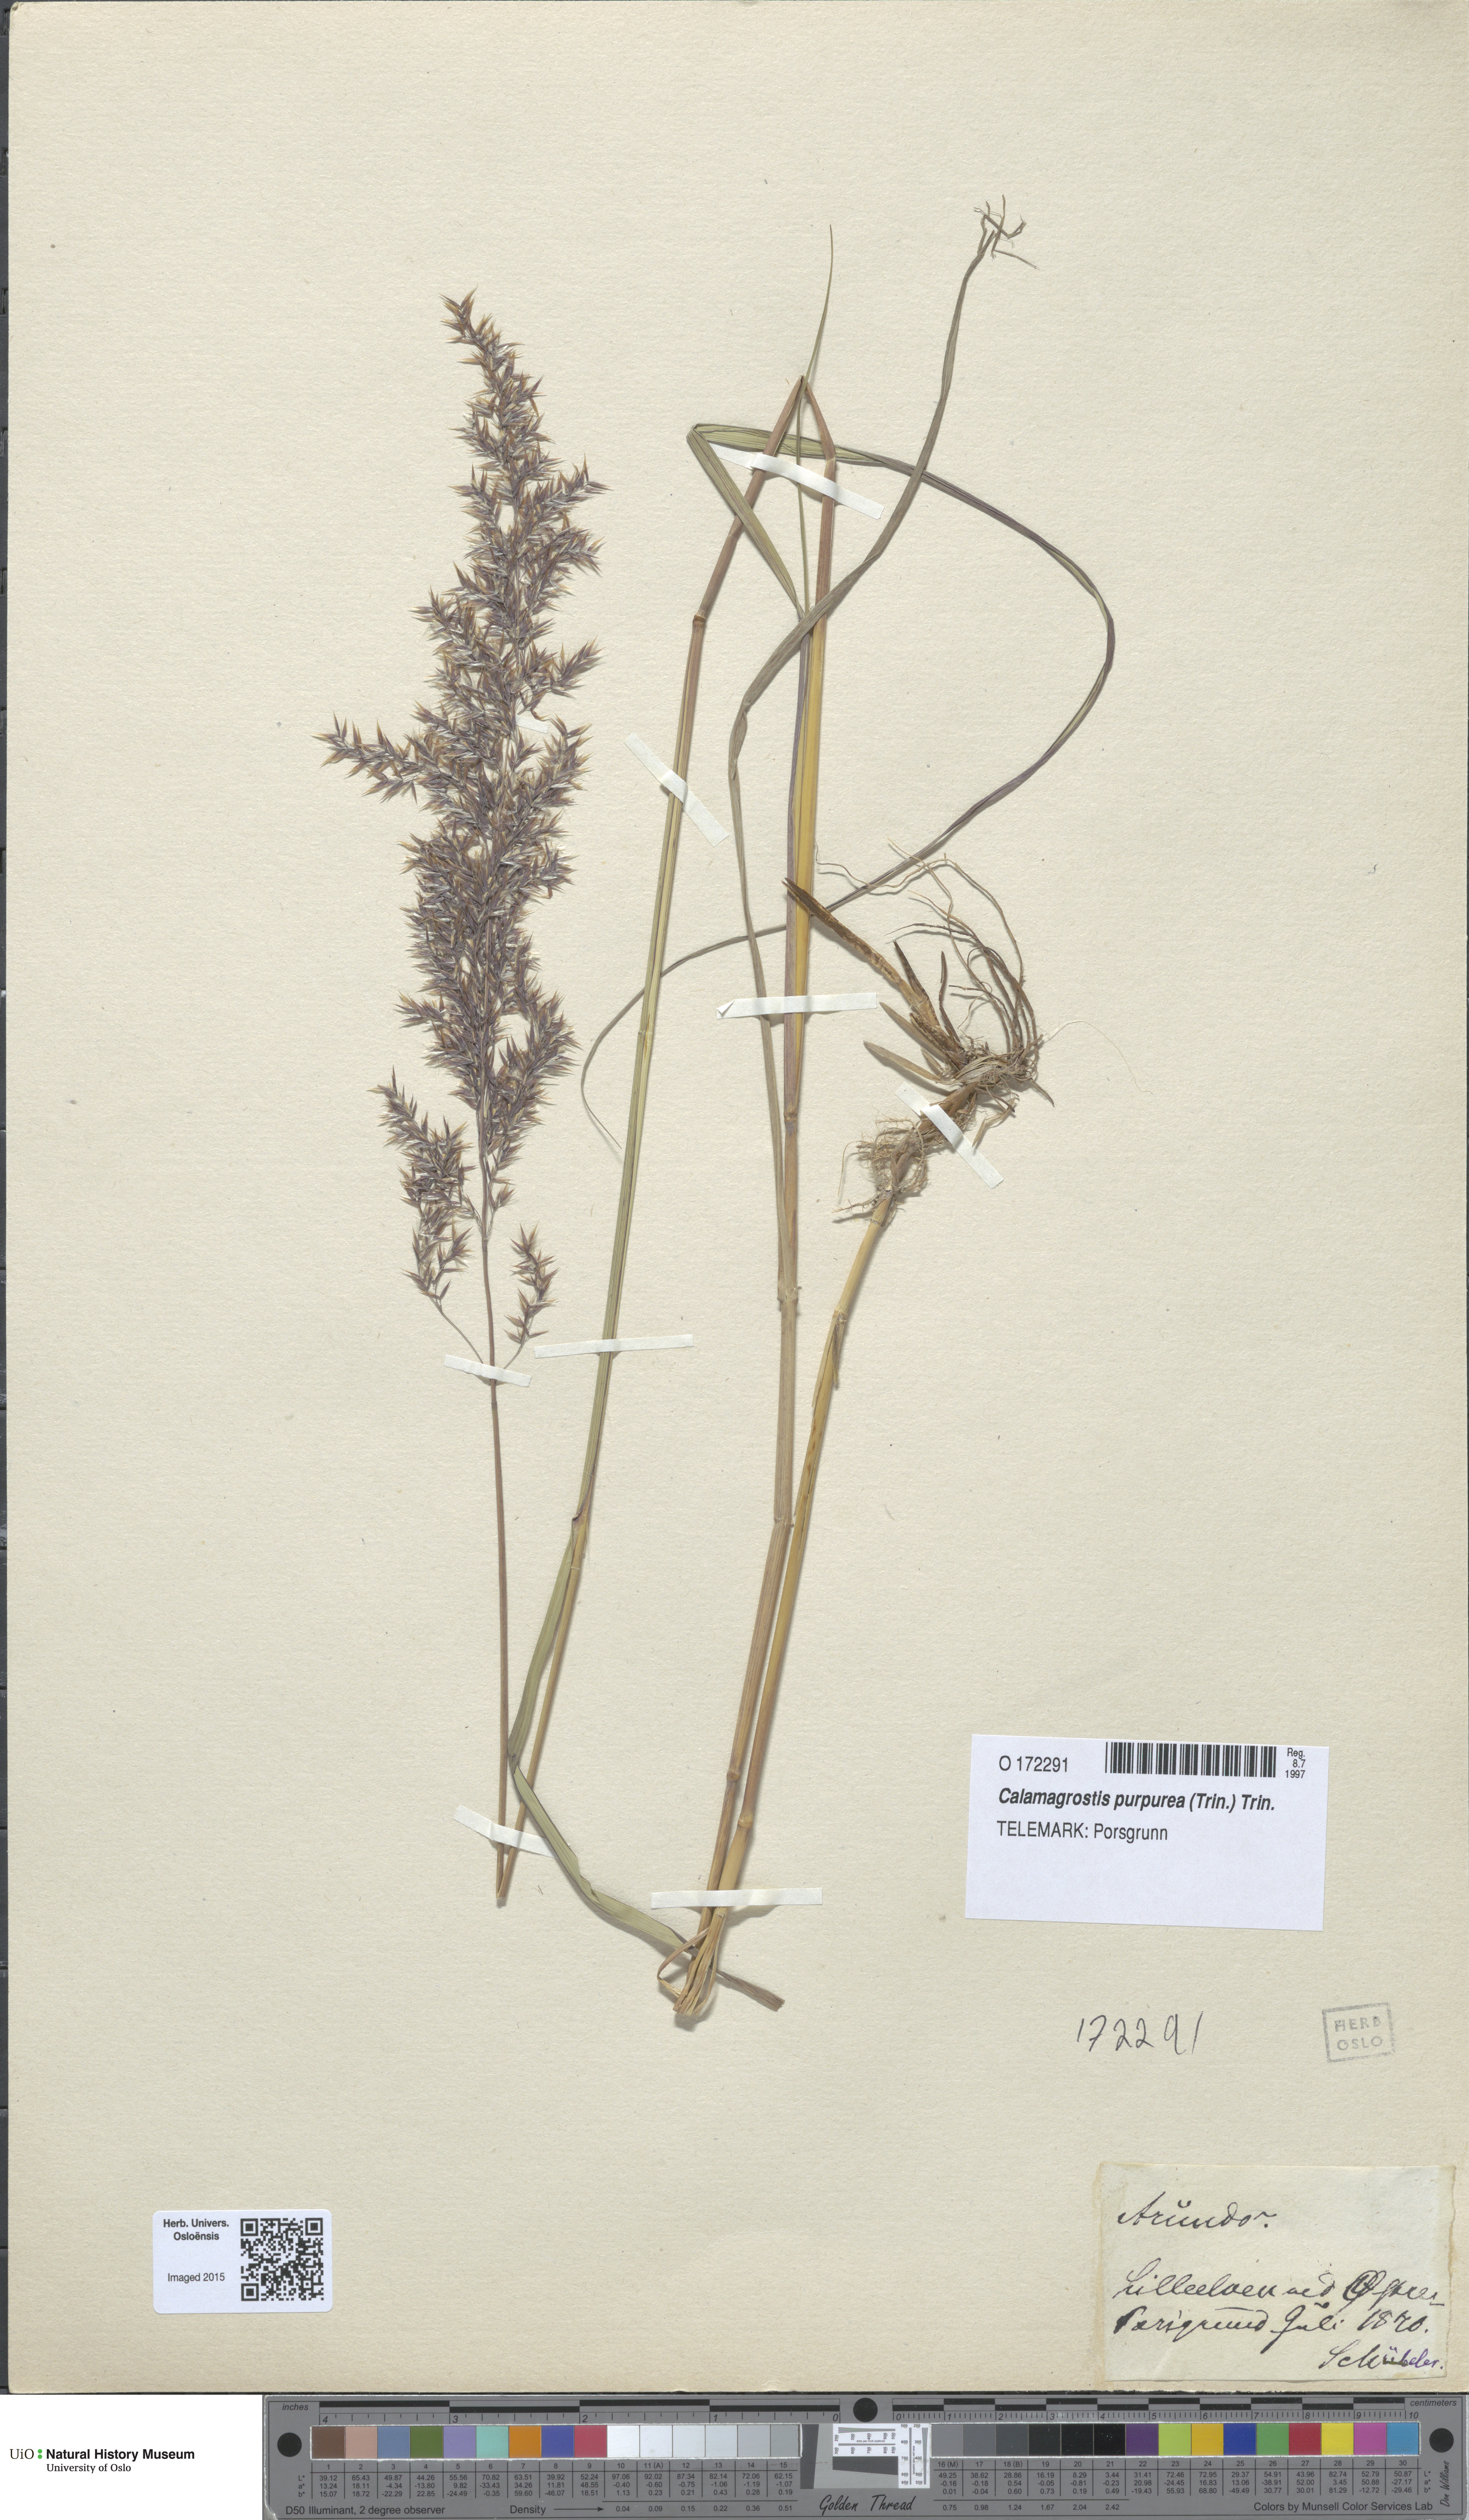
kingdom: Plantae
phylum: Tracheophyta
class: Liliopsida
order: Poales
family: Poaceae
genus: Calamagrostis
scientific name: Calamagrostis purpurea
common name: Scandinavian small-reed
